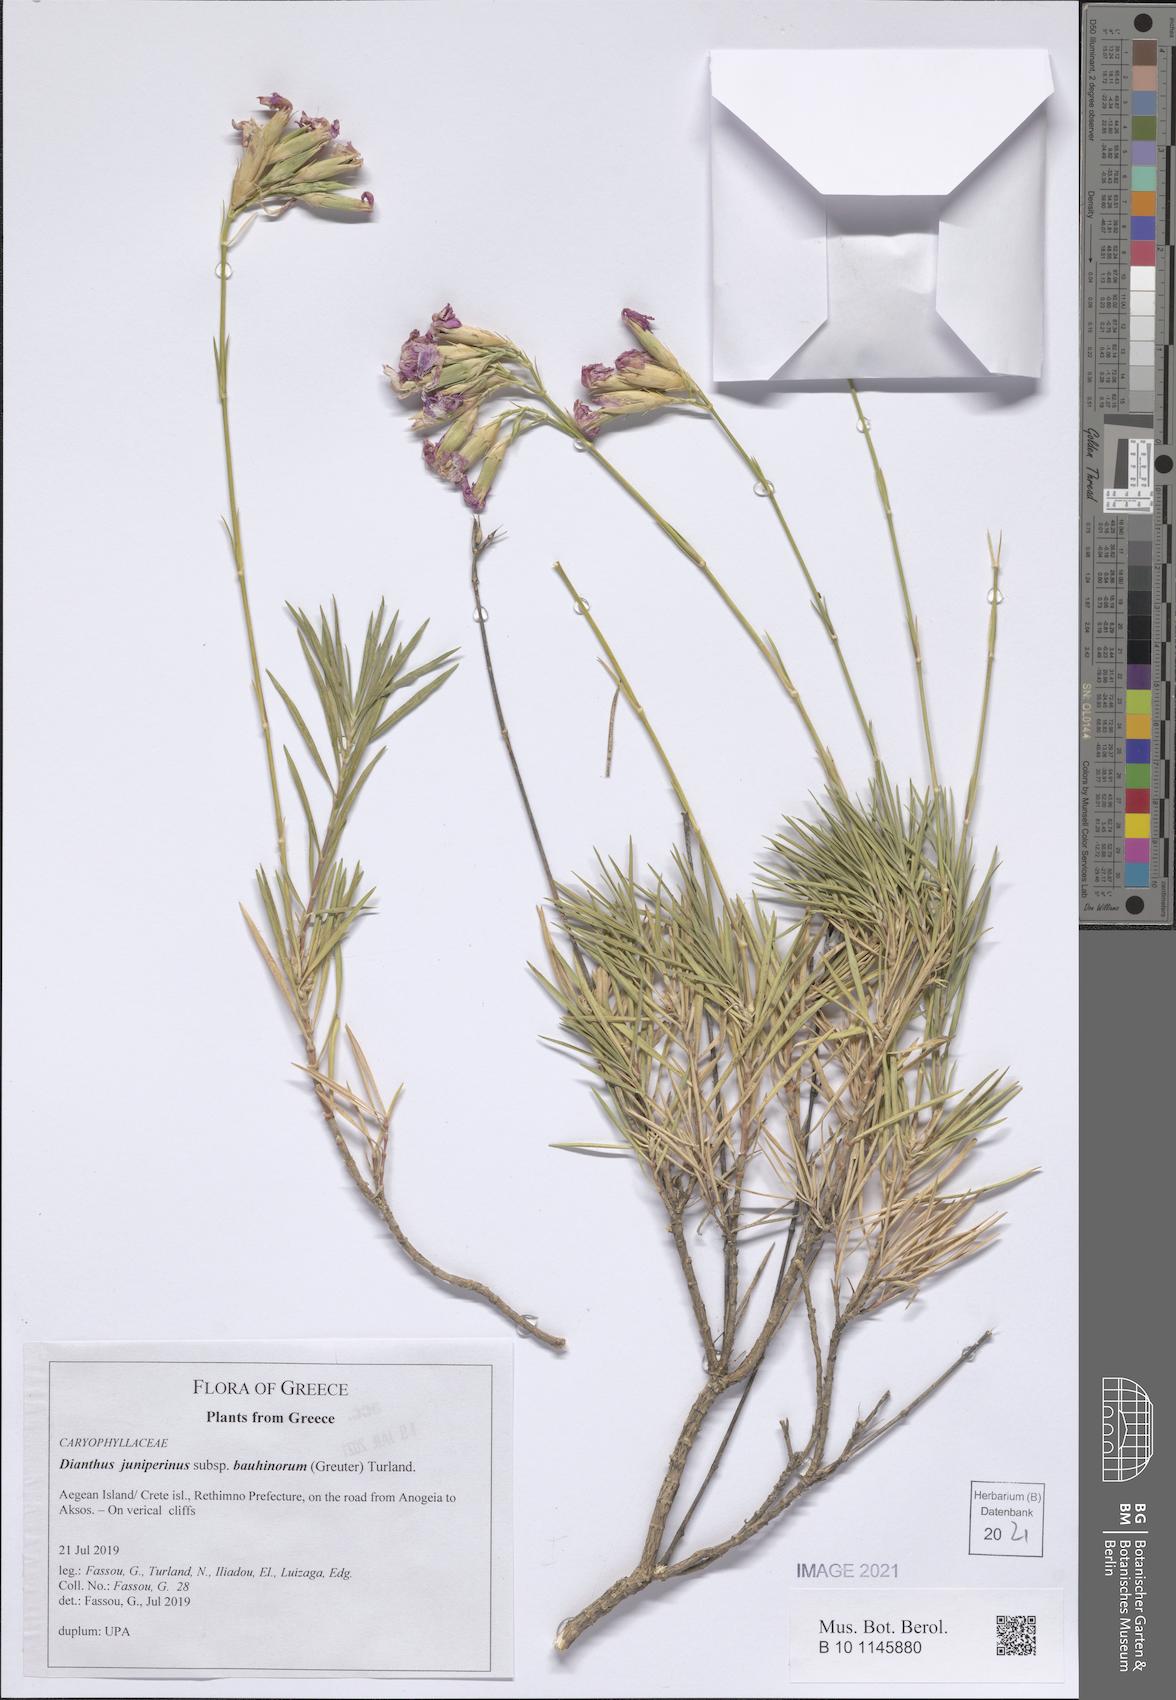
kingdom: Plantae
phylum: Tracheophyta
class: Magnoliopsida
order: Caryophyllales
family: Caryophyllaceae
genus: Dianthus
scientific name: Dianthus juniperinus
